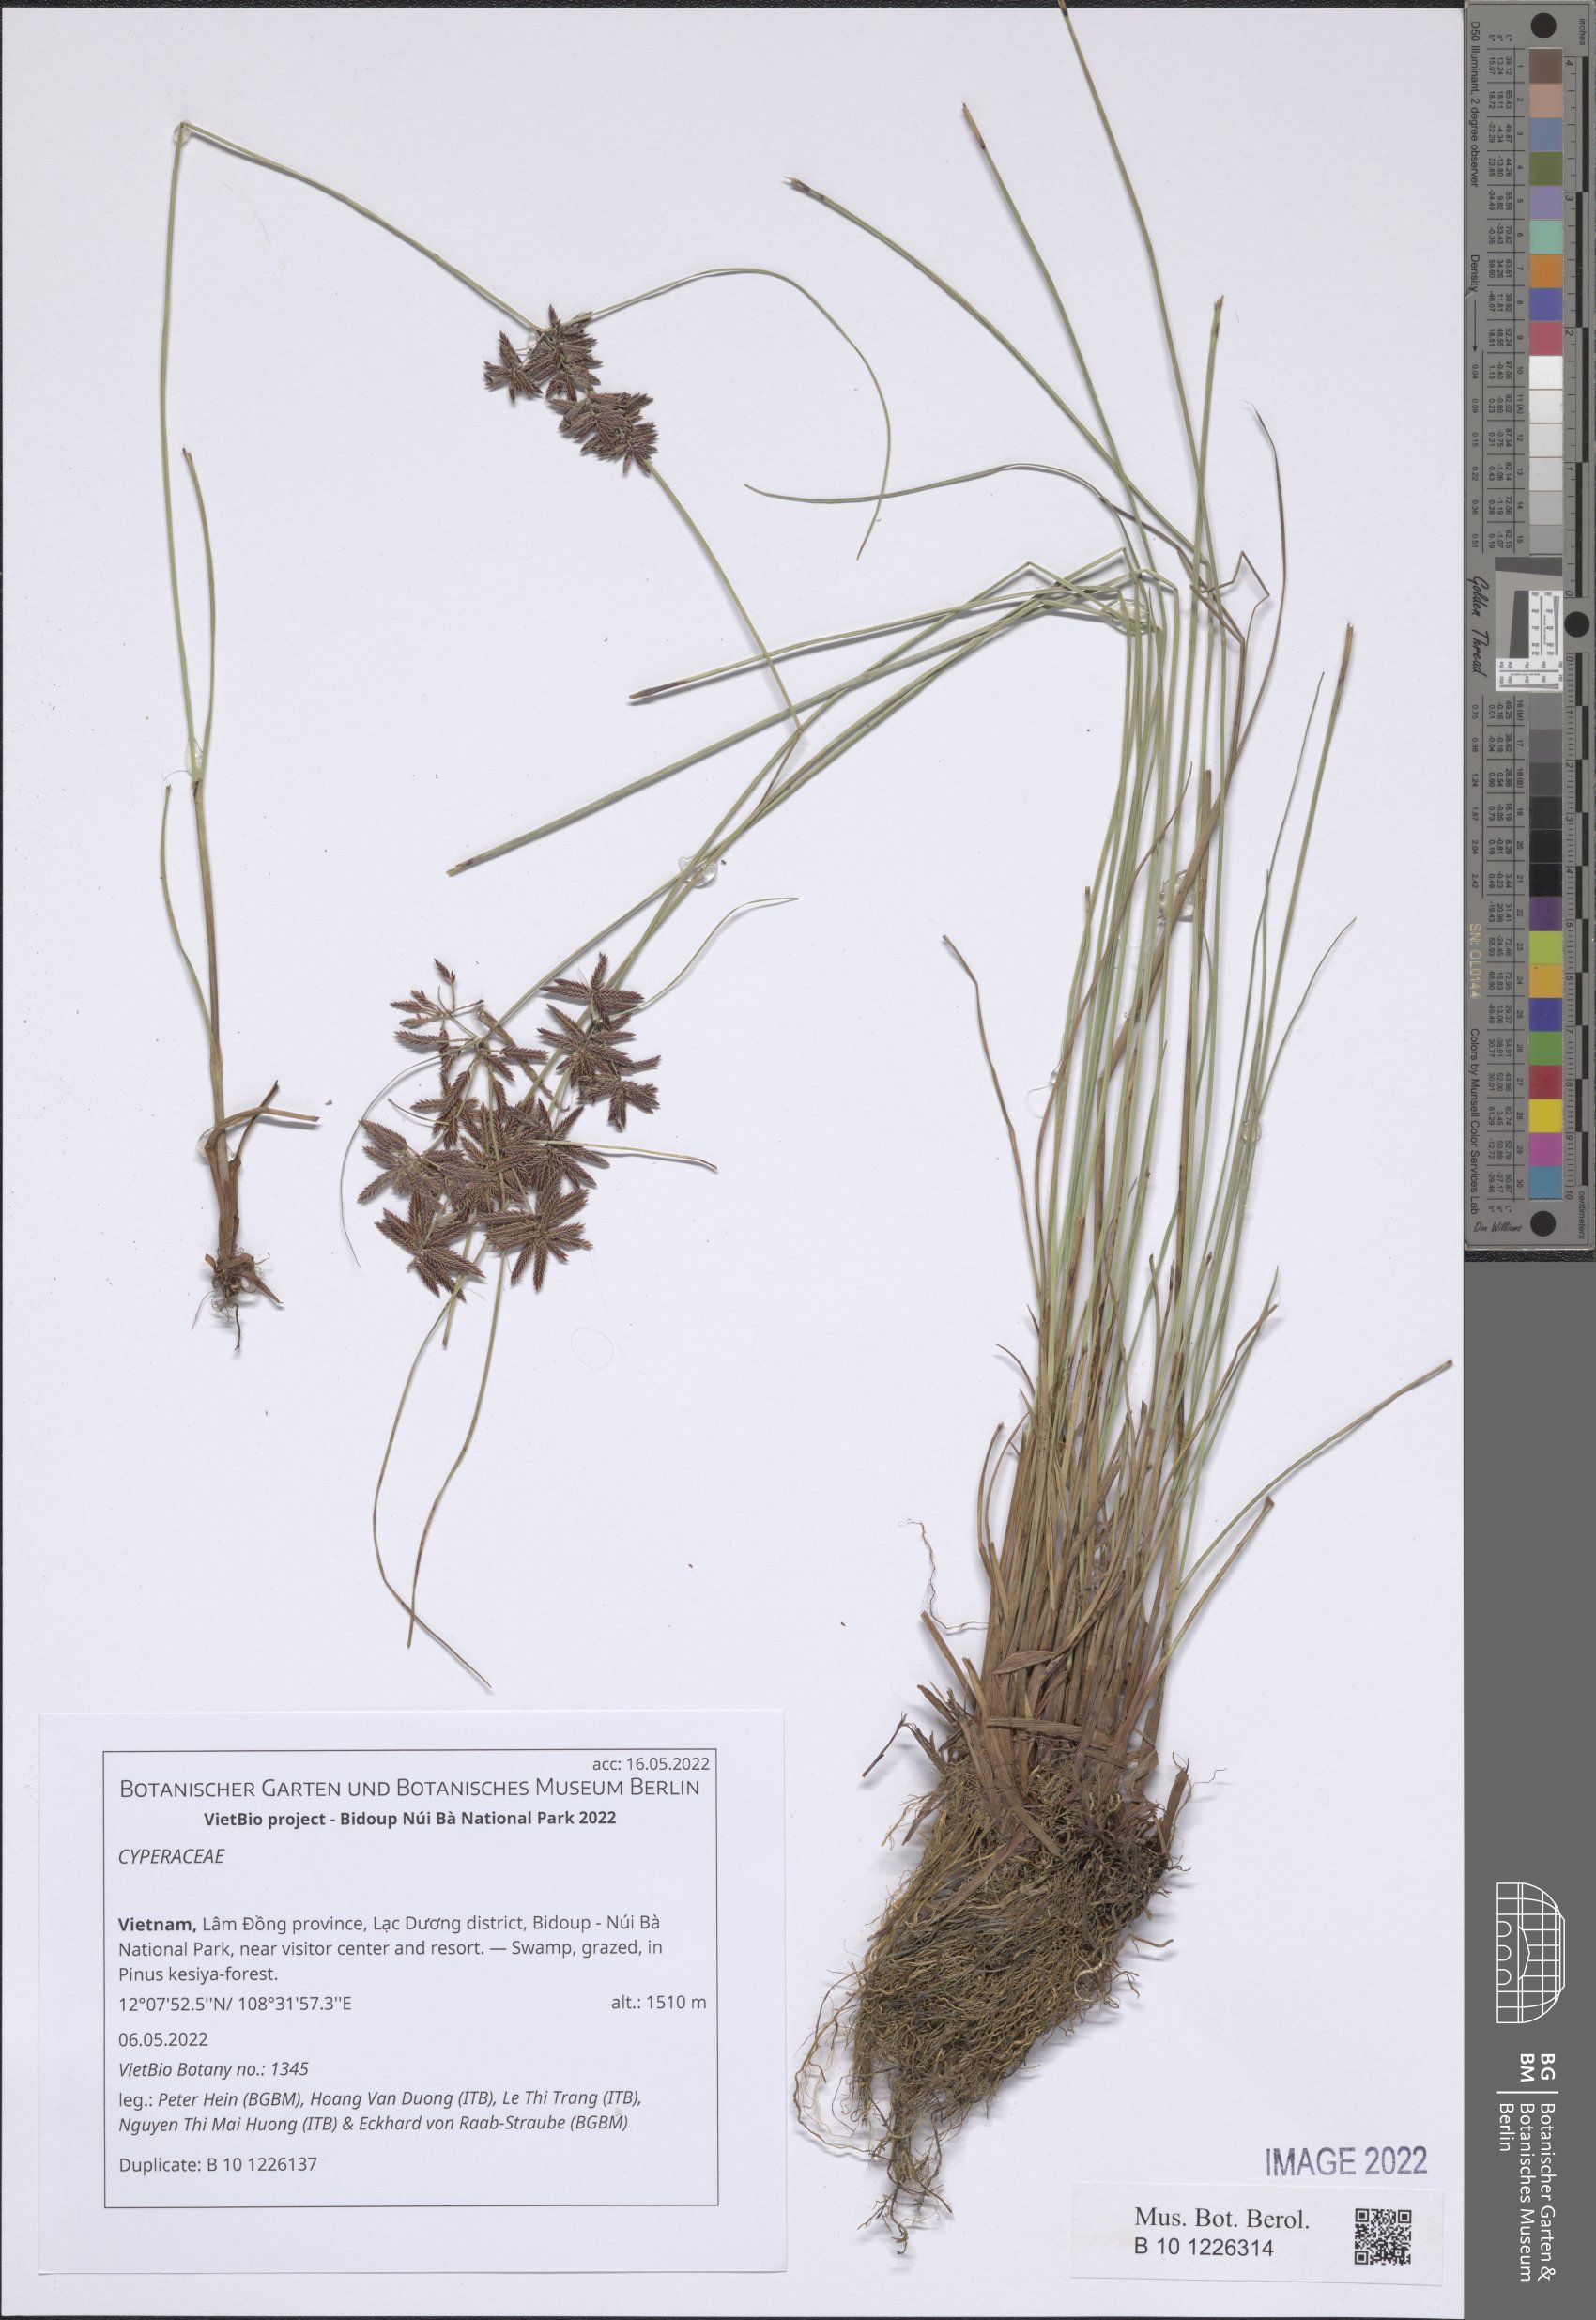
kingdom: Plantae
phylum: Tracheophyta
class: Liliopsida
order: Poales
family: Cyperaceae
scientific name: Cyperaceae
